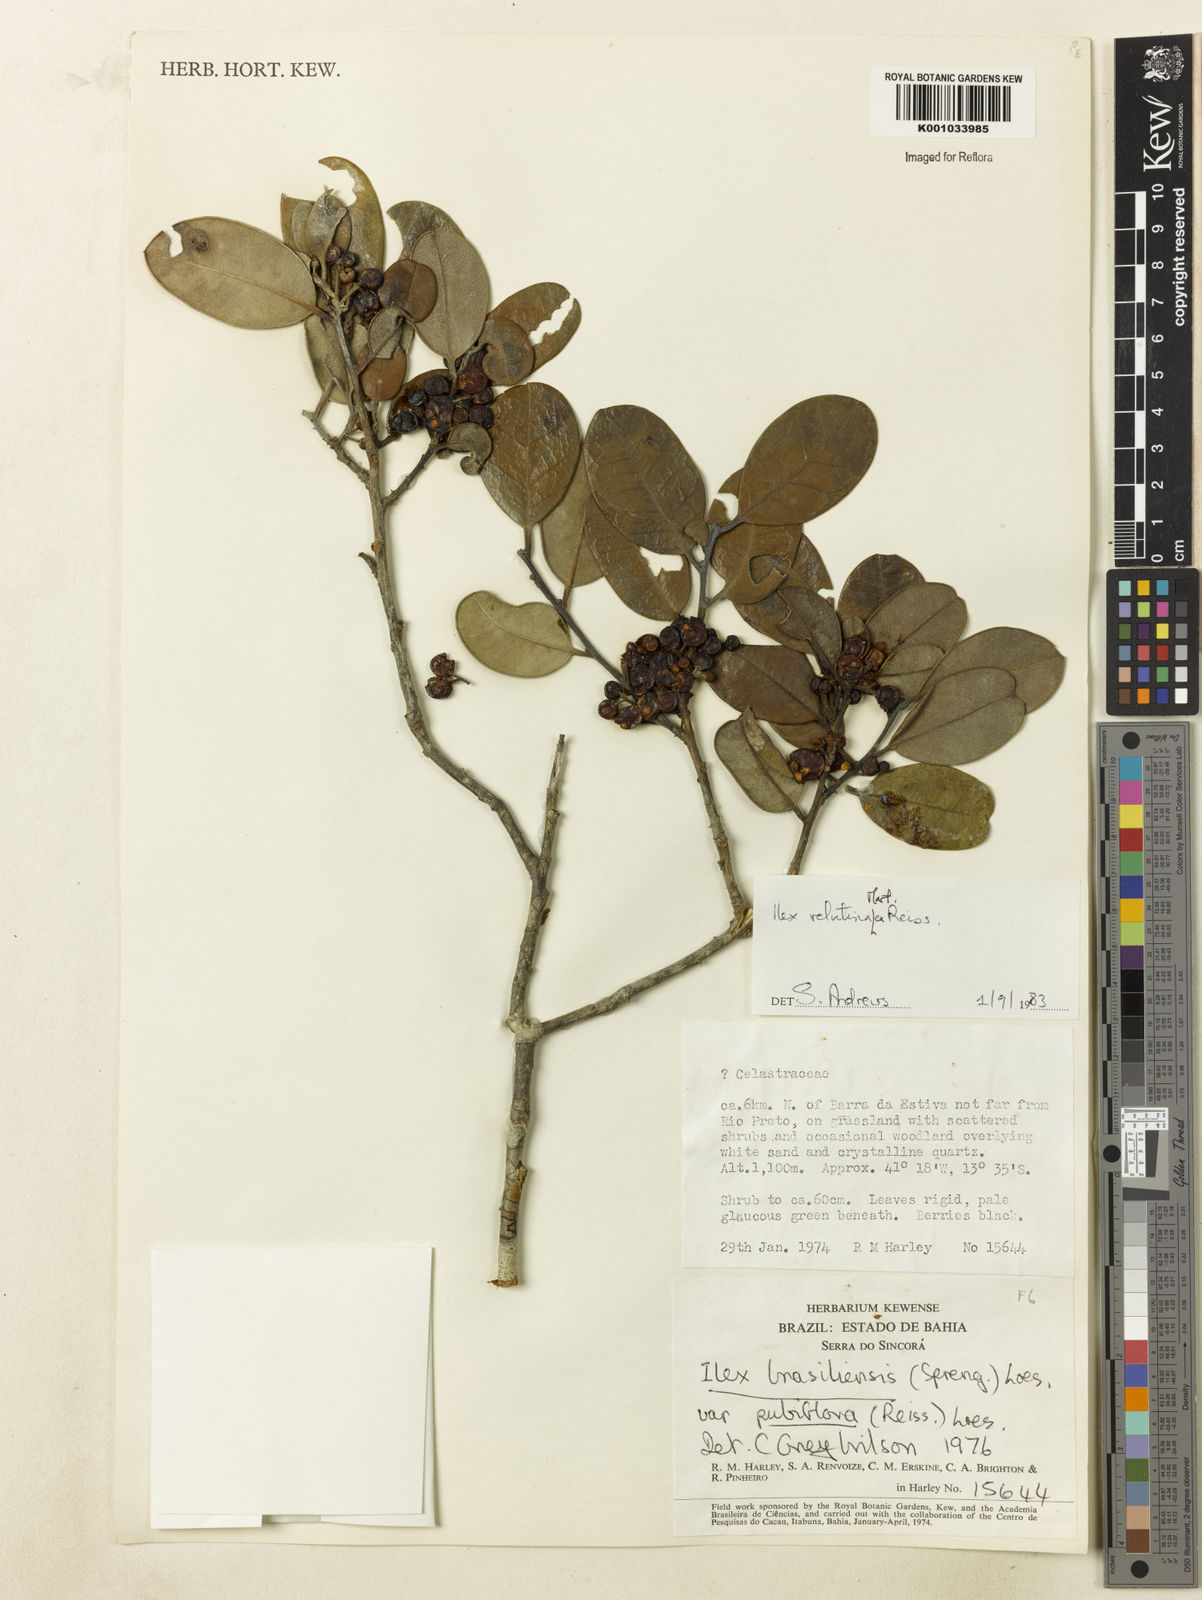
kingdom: Plantae
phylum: Tracheophyta
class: Magnoliopsida
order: Aquifoliales
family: Aquifoliaceae
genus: Ilex
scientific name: Ilex velutina
